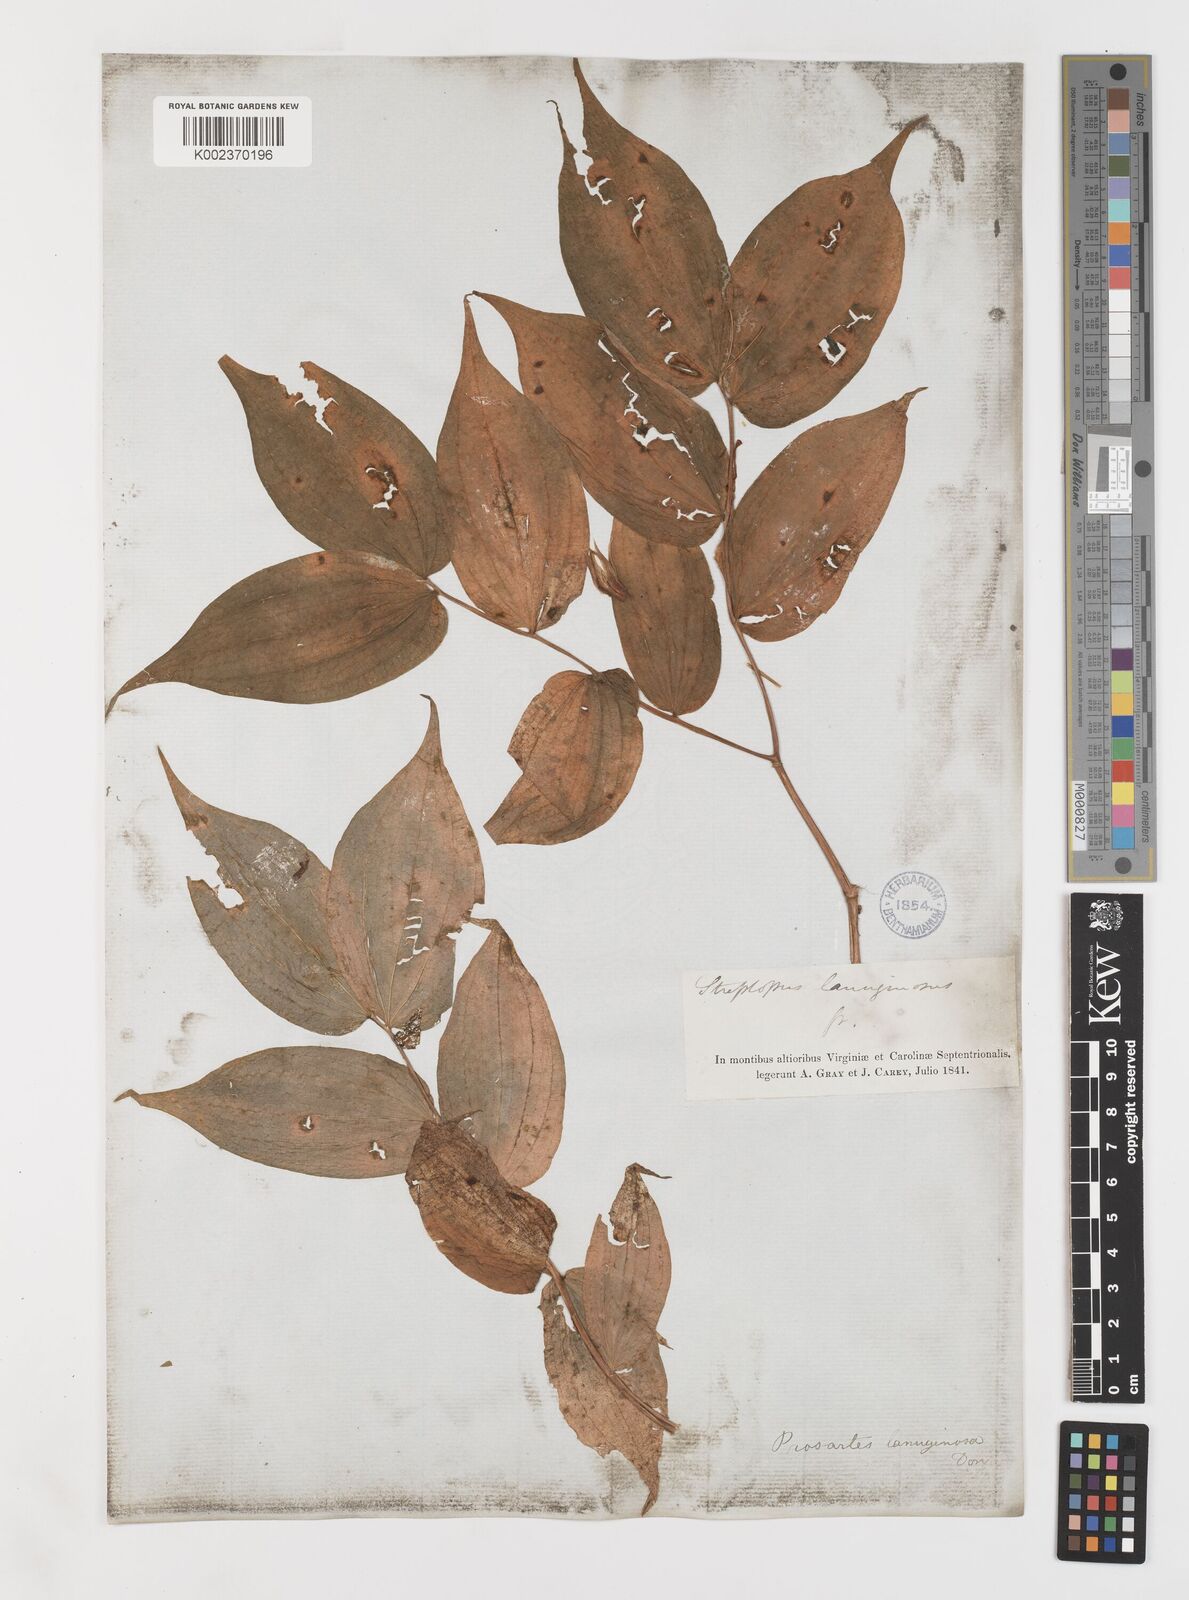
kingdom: Plantae
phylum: Tracheophyta
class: Liliopsida
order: Liliales
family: Liliaceae
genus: Prosartes
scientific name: Prosartes trachycarpa
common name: Rough-fruit fairy-bells
